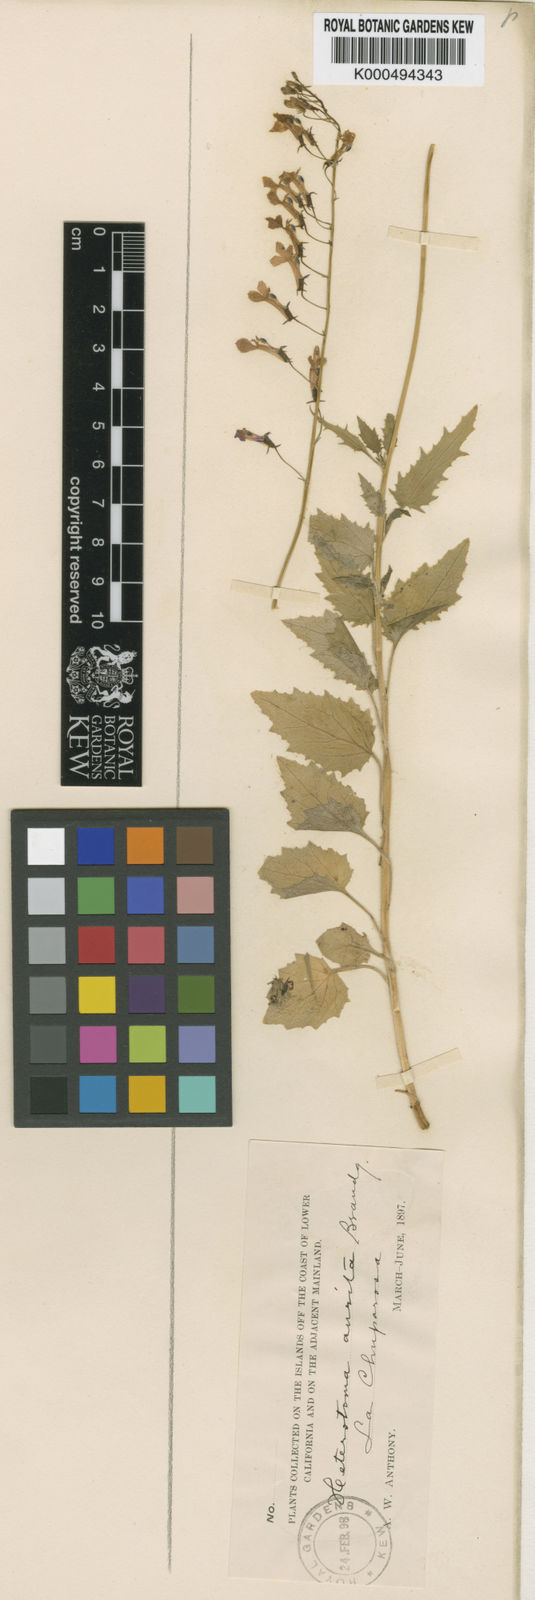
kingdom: Plantae
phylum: Tracheophyta
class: Magnoliopsida
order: Asterales
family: Campanulaceae
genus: Lobelia
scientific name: Lobelia aurita
